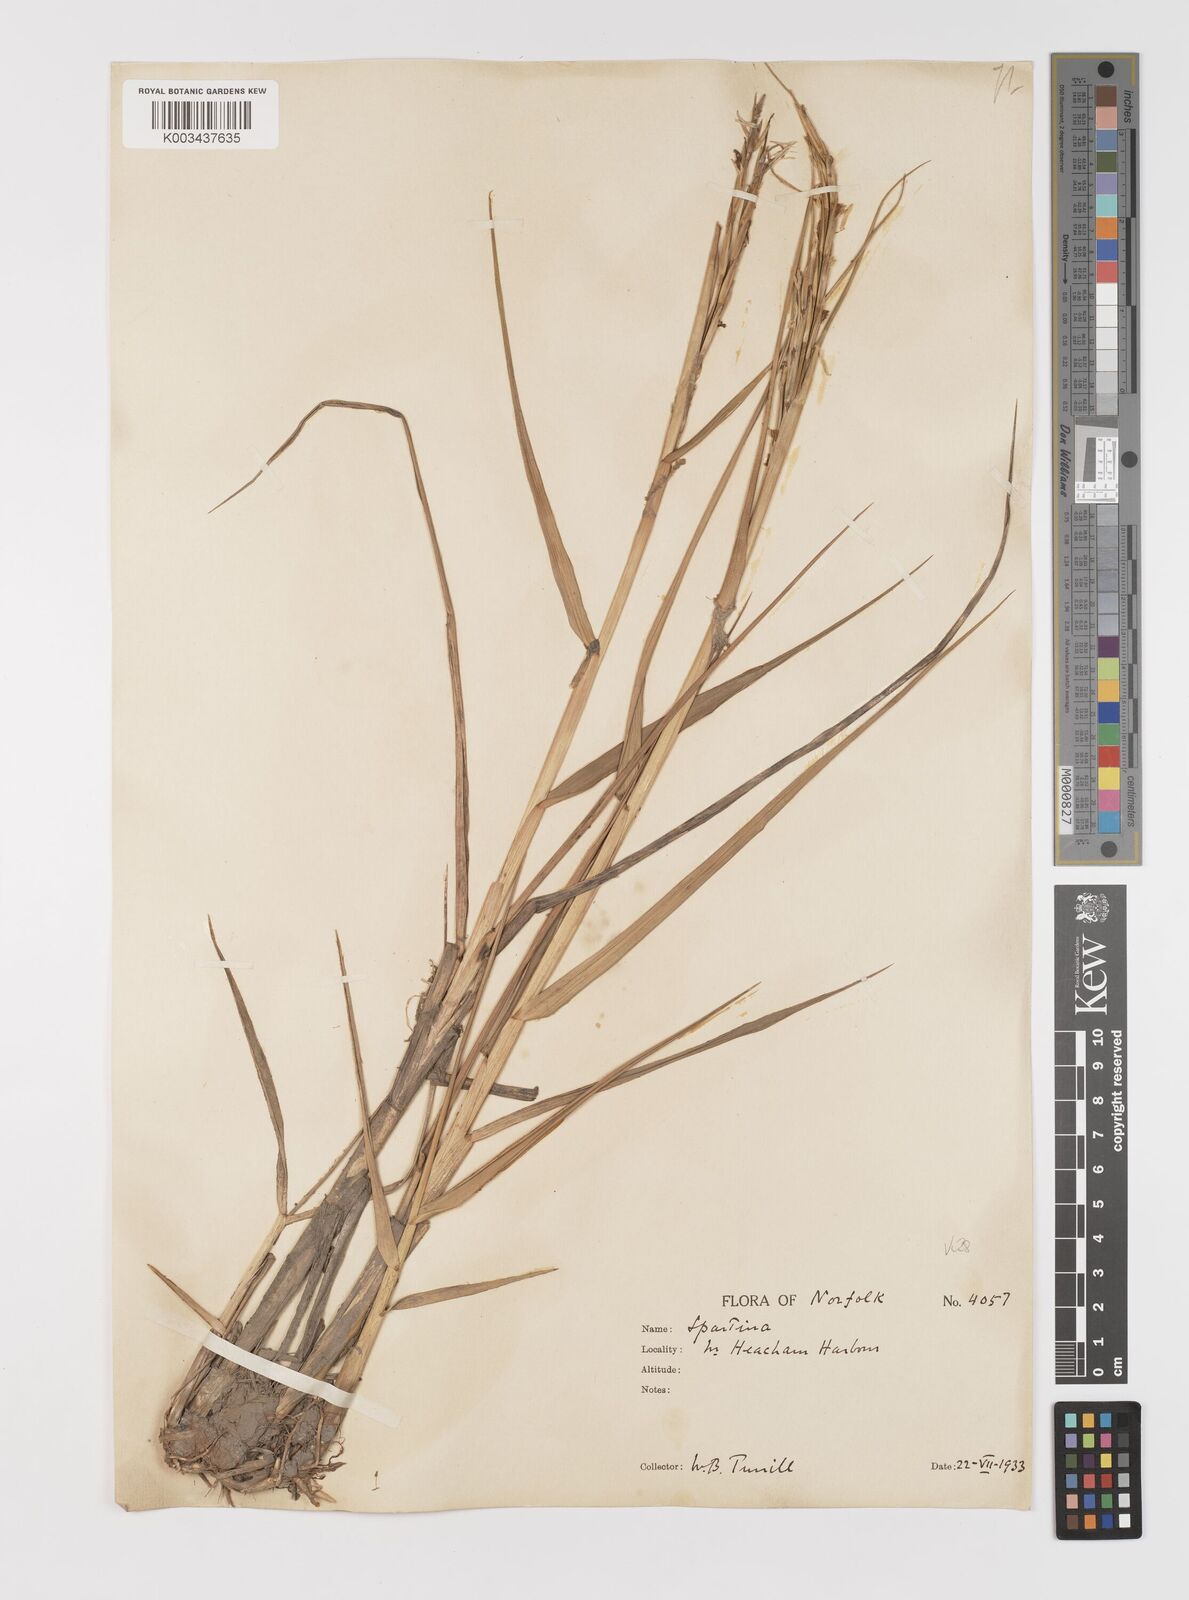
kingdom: Plantae
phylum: Tracheophyta
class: Liliopsida
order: Poales
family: Poaceae
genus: Sporobolus
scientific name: Sporobolus anglicus
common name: English cordgrass
